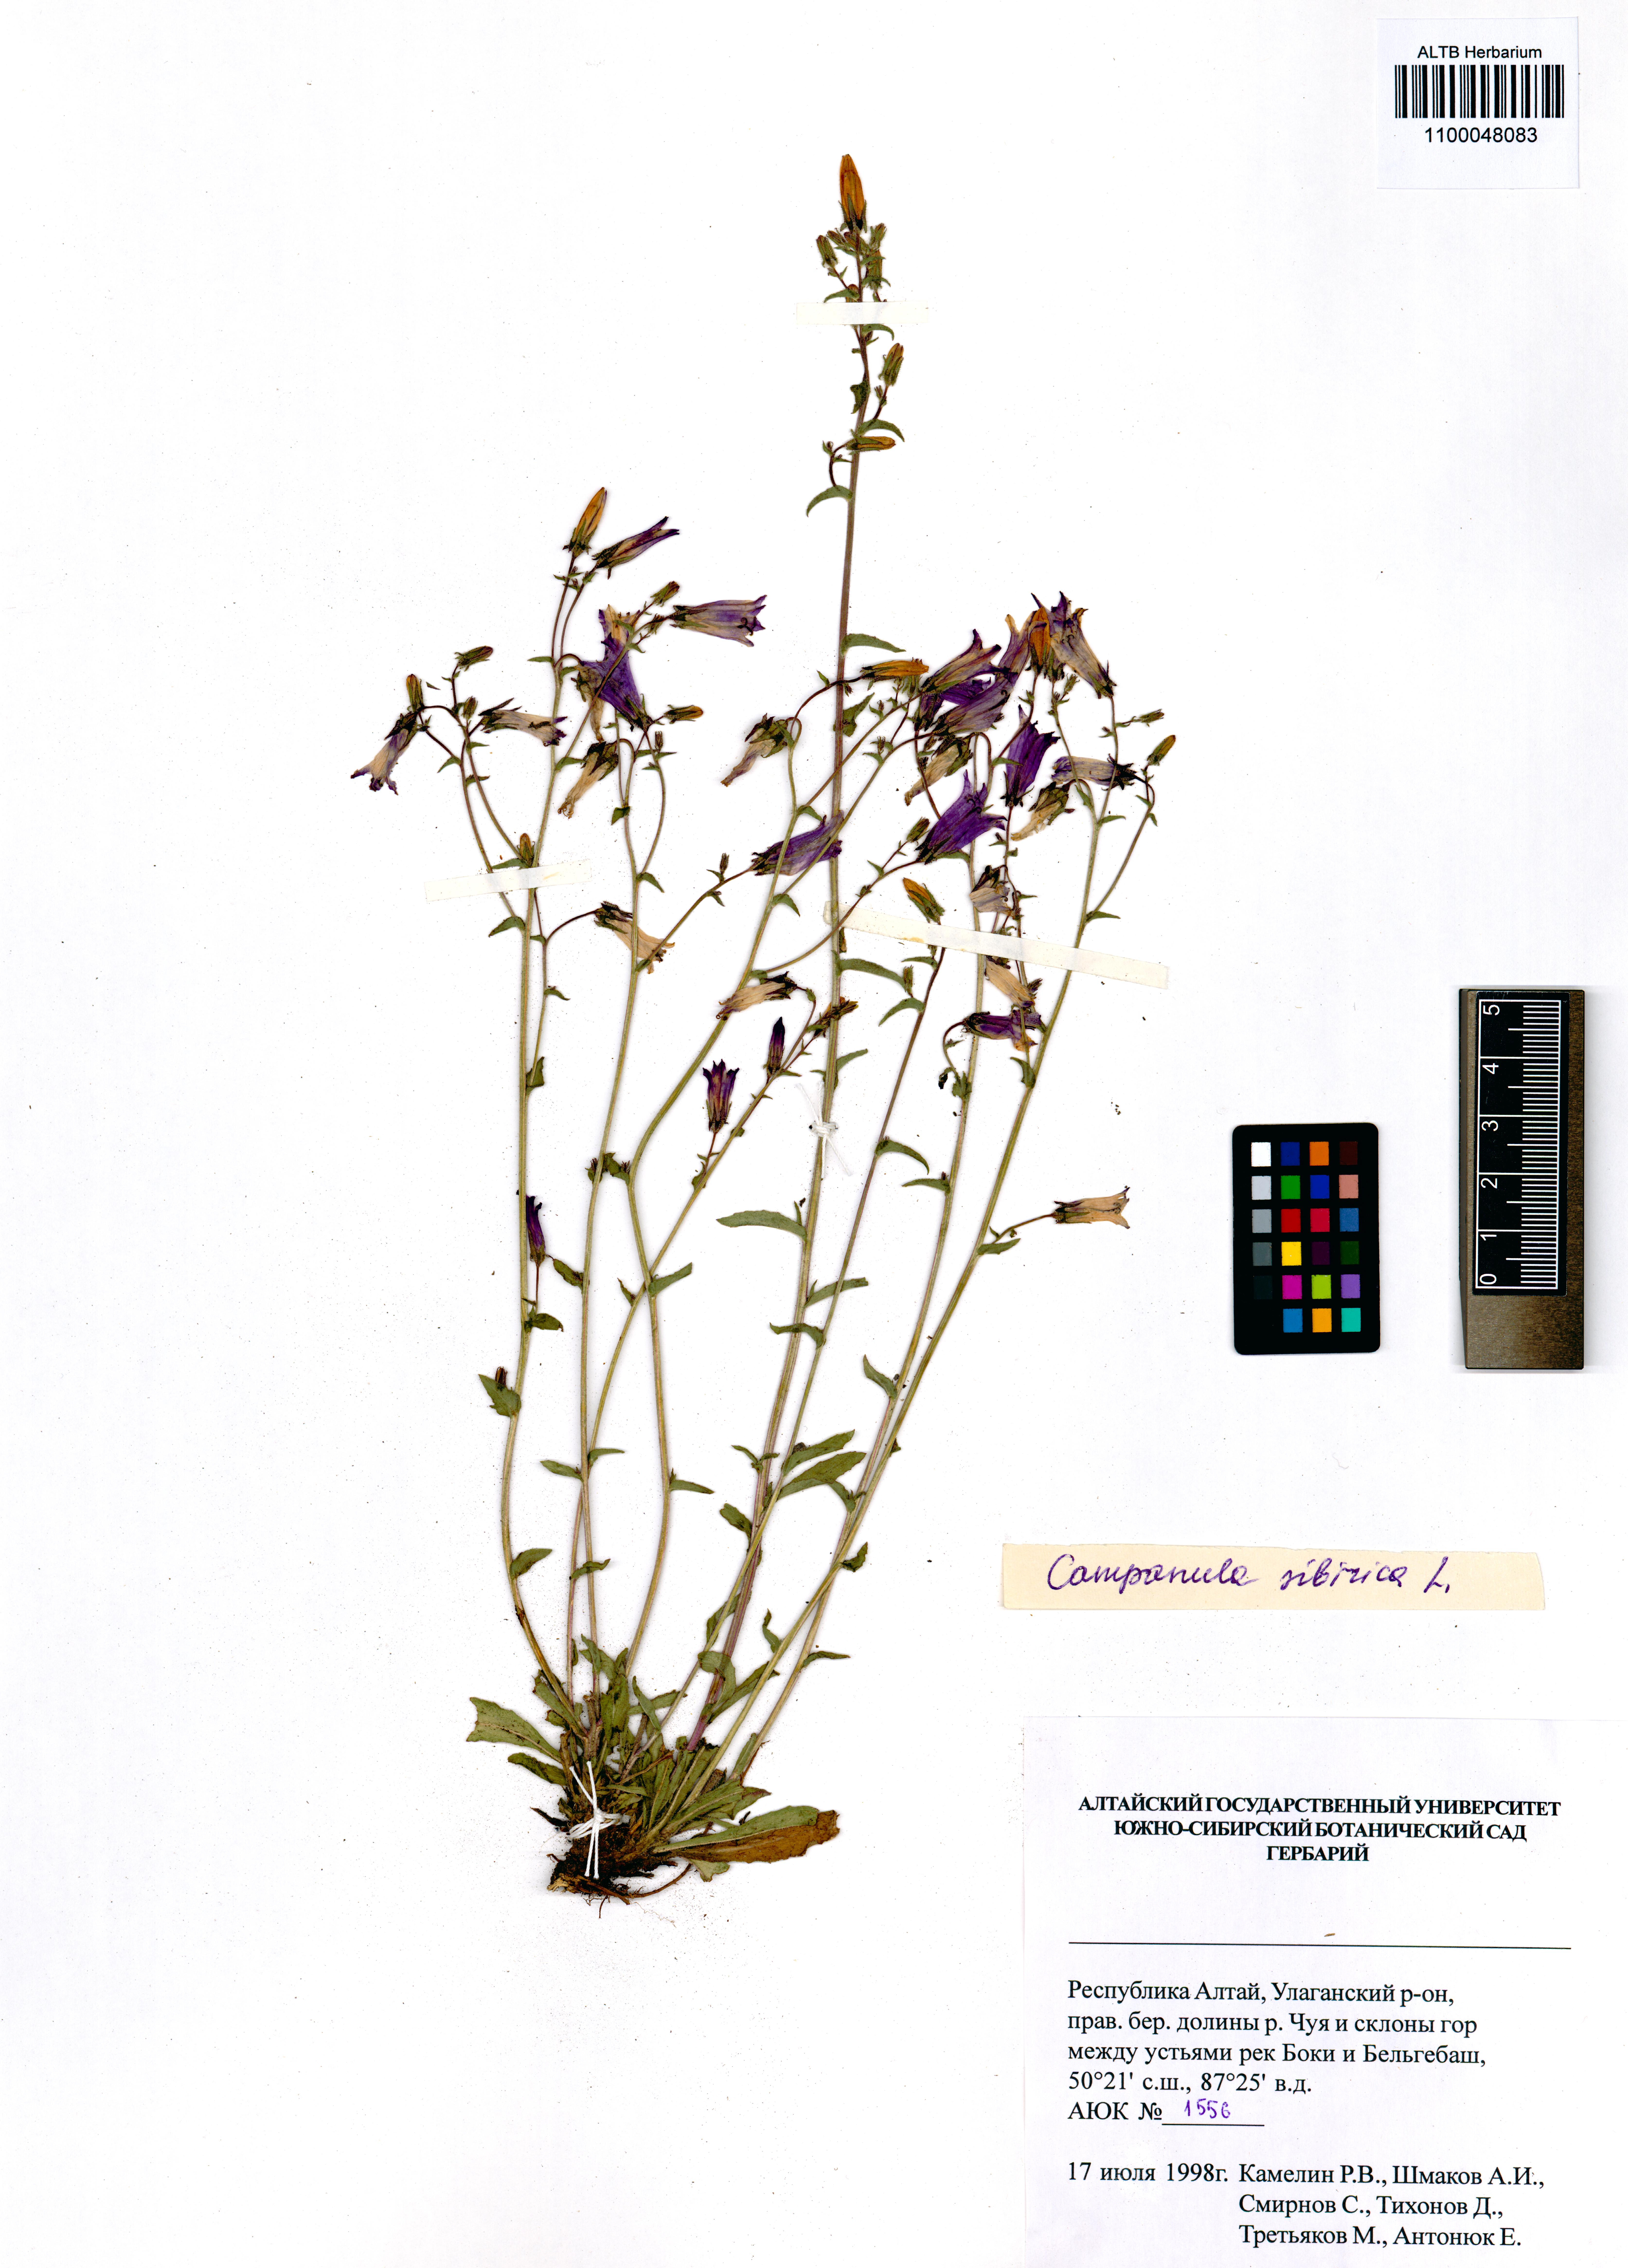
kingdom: Plantae
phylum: Tracheophyta
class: Magnoliopsida
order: Asterales
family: Campanulaceae
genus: Campanula
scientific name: Campanula sibirica
